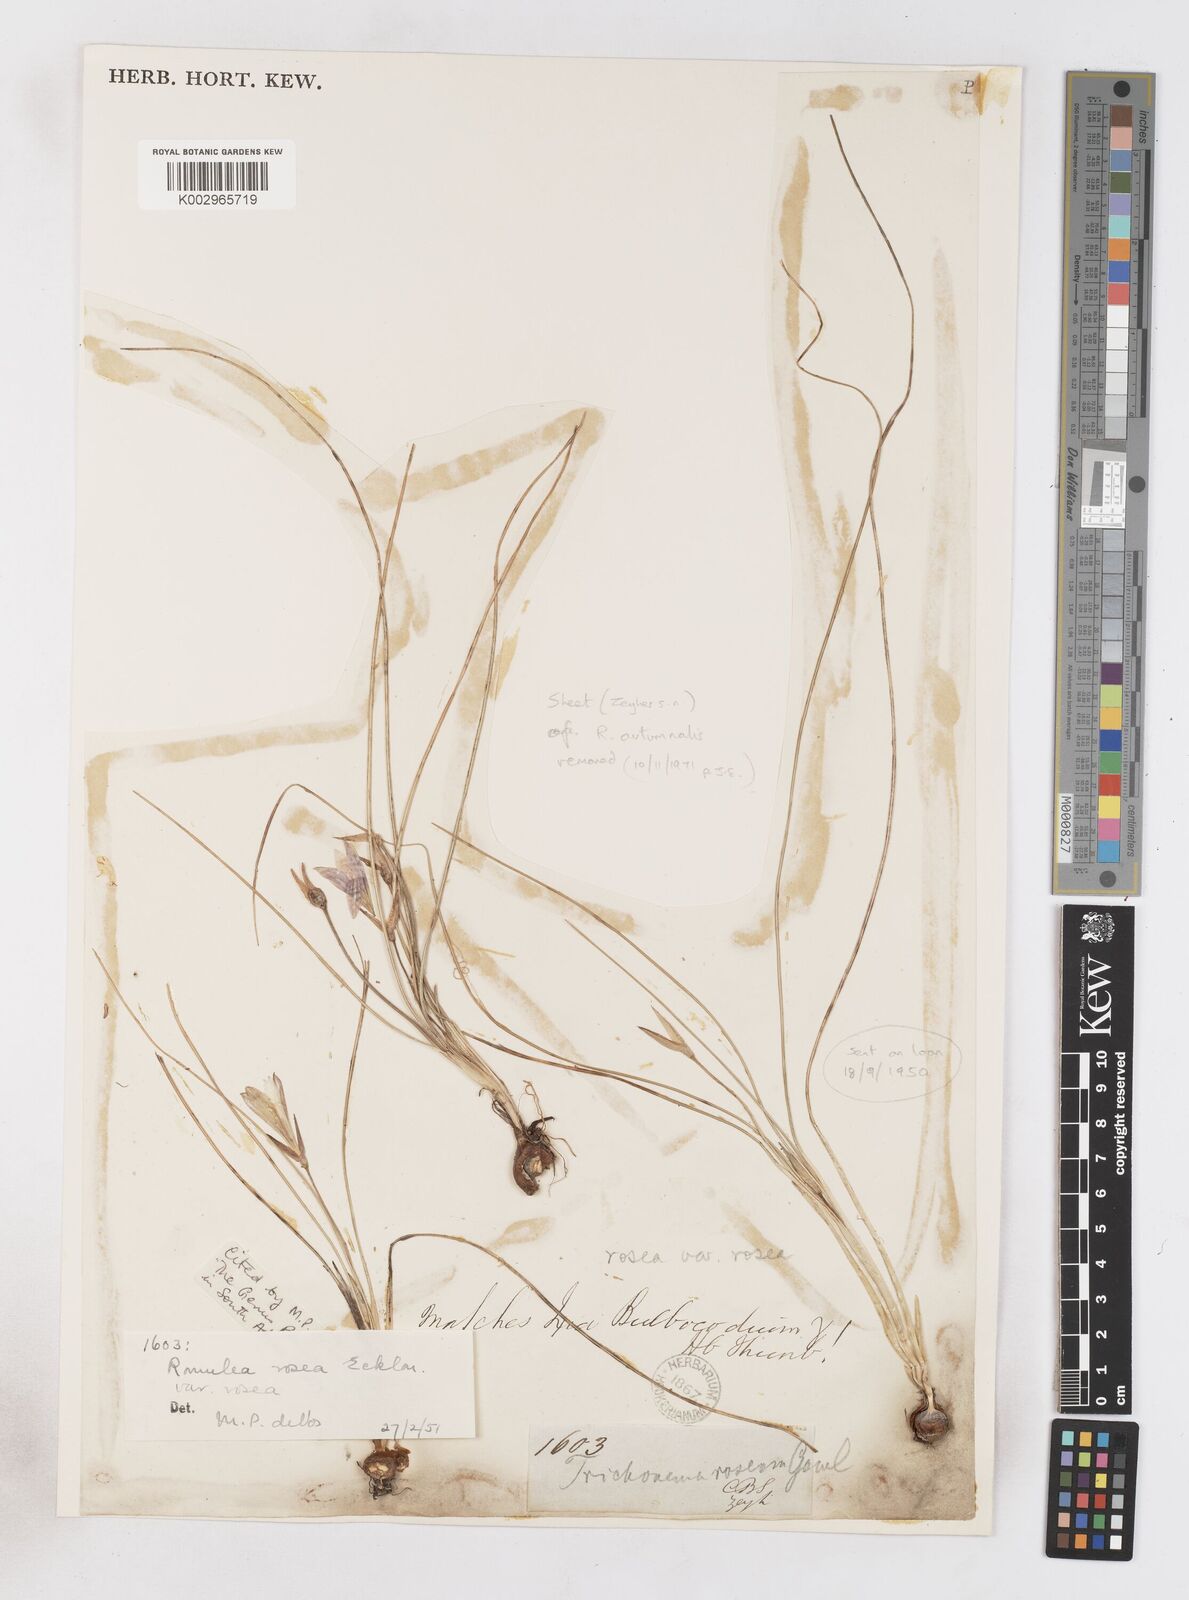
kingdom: Plantae
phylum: Tracheophyta
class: Liliopsida
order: Asparagales
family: Iridaceae
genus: Romulea
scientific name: Romulea rosea
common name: Oniongrass
